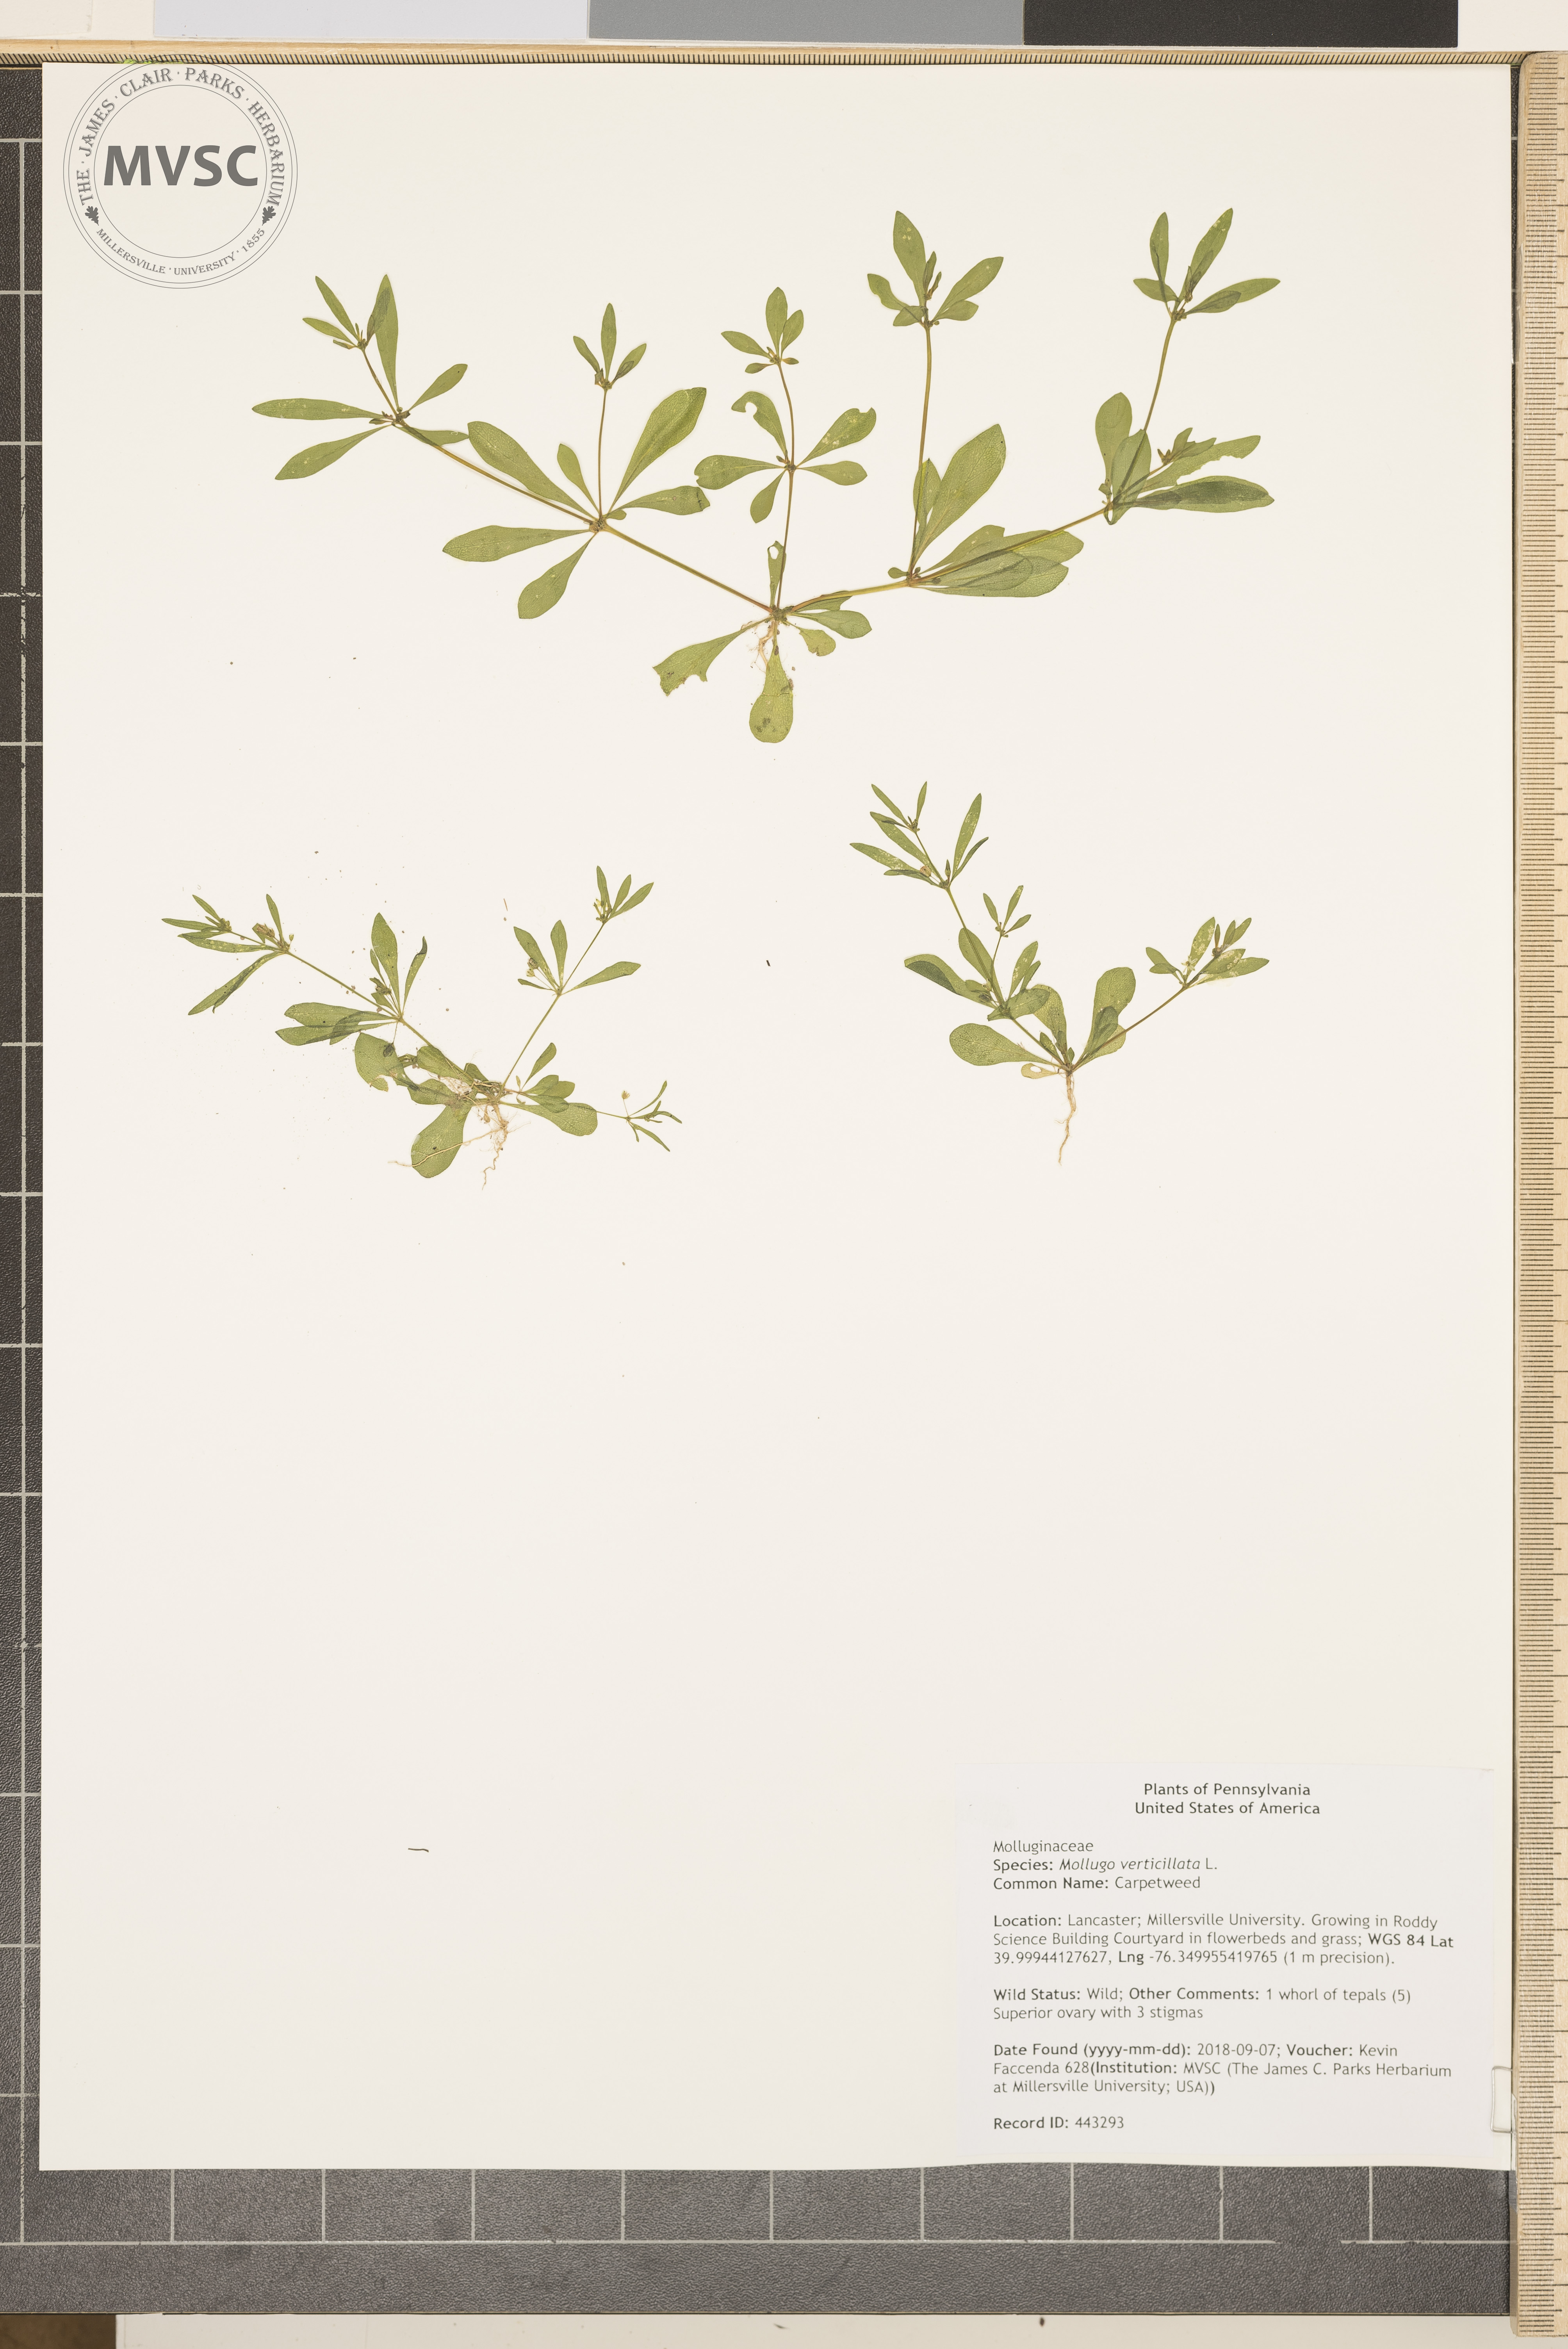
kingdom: Plantae
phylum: Tracheophyta
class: Magnoliopsida
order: Caryophyllales
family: Molluginaceae
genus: Mollugo
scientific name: Mollugo verticillata
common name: Carpetweed
